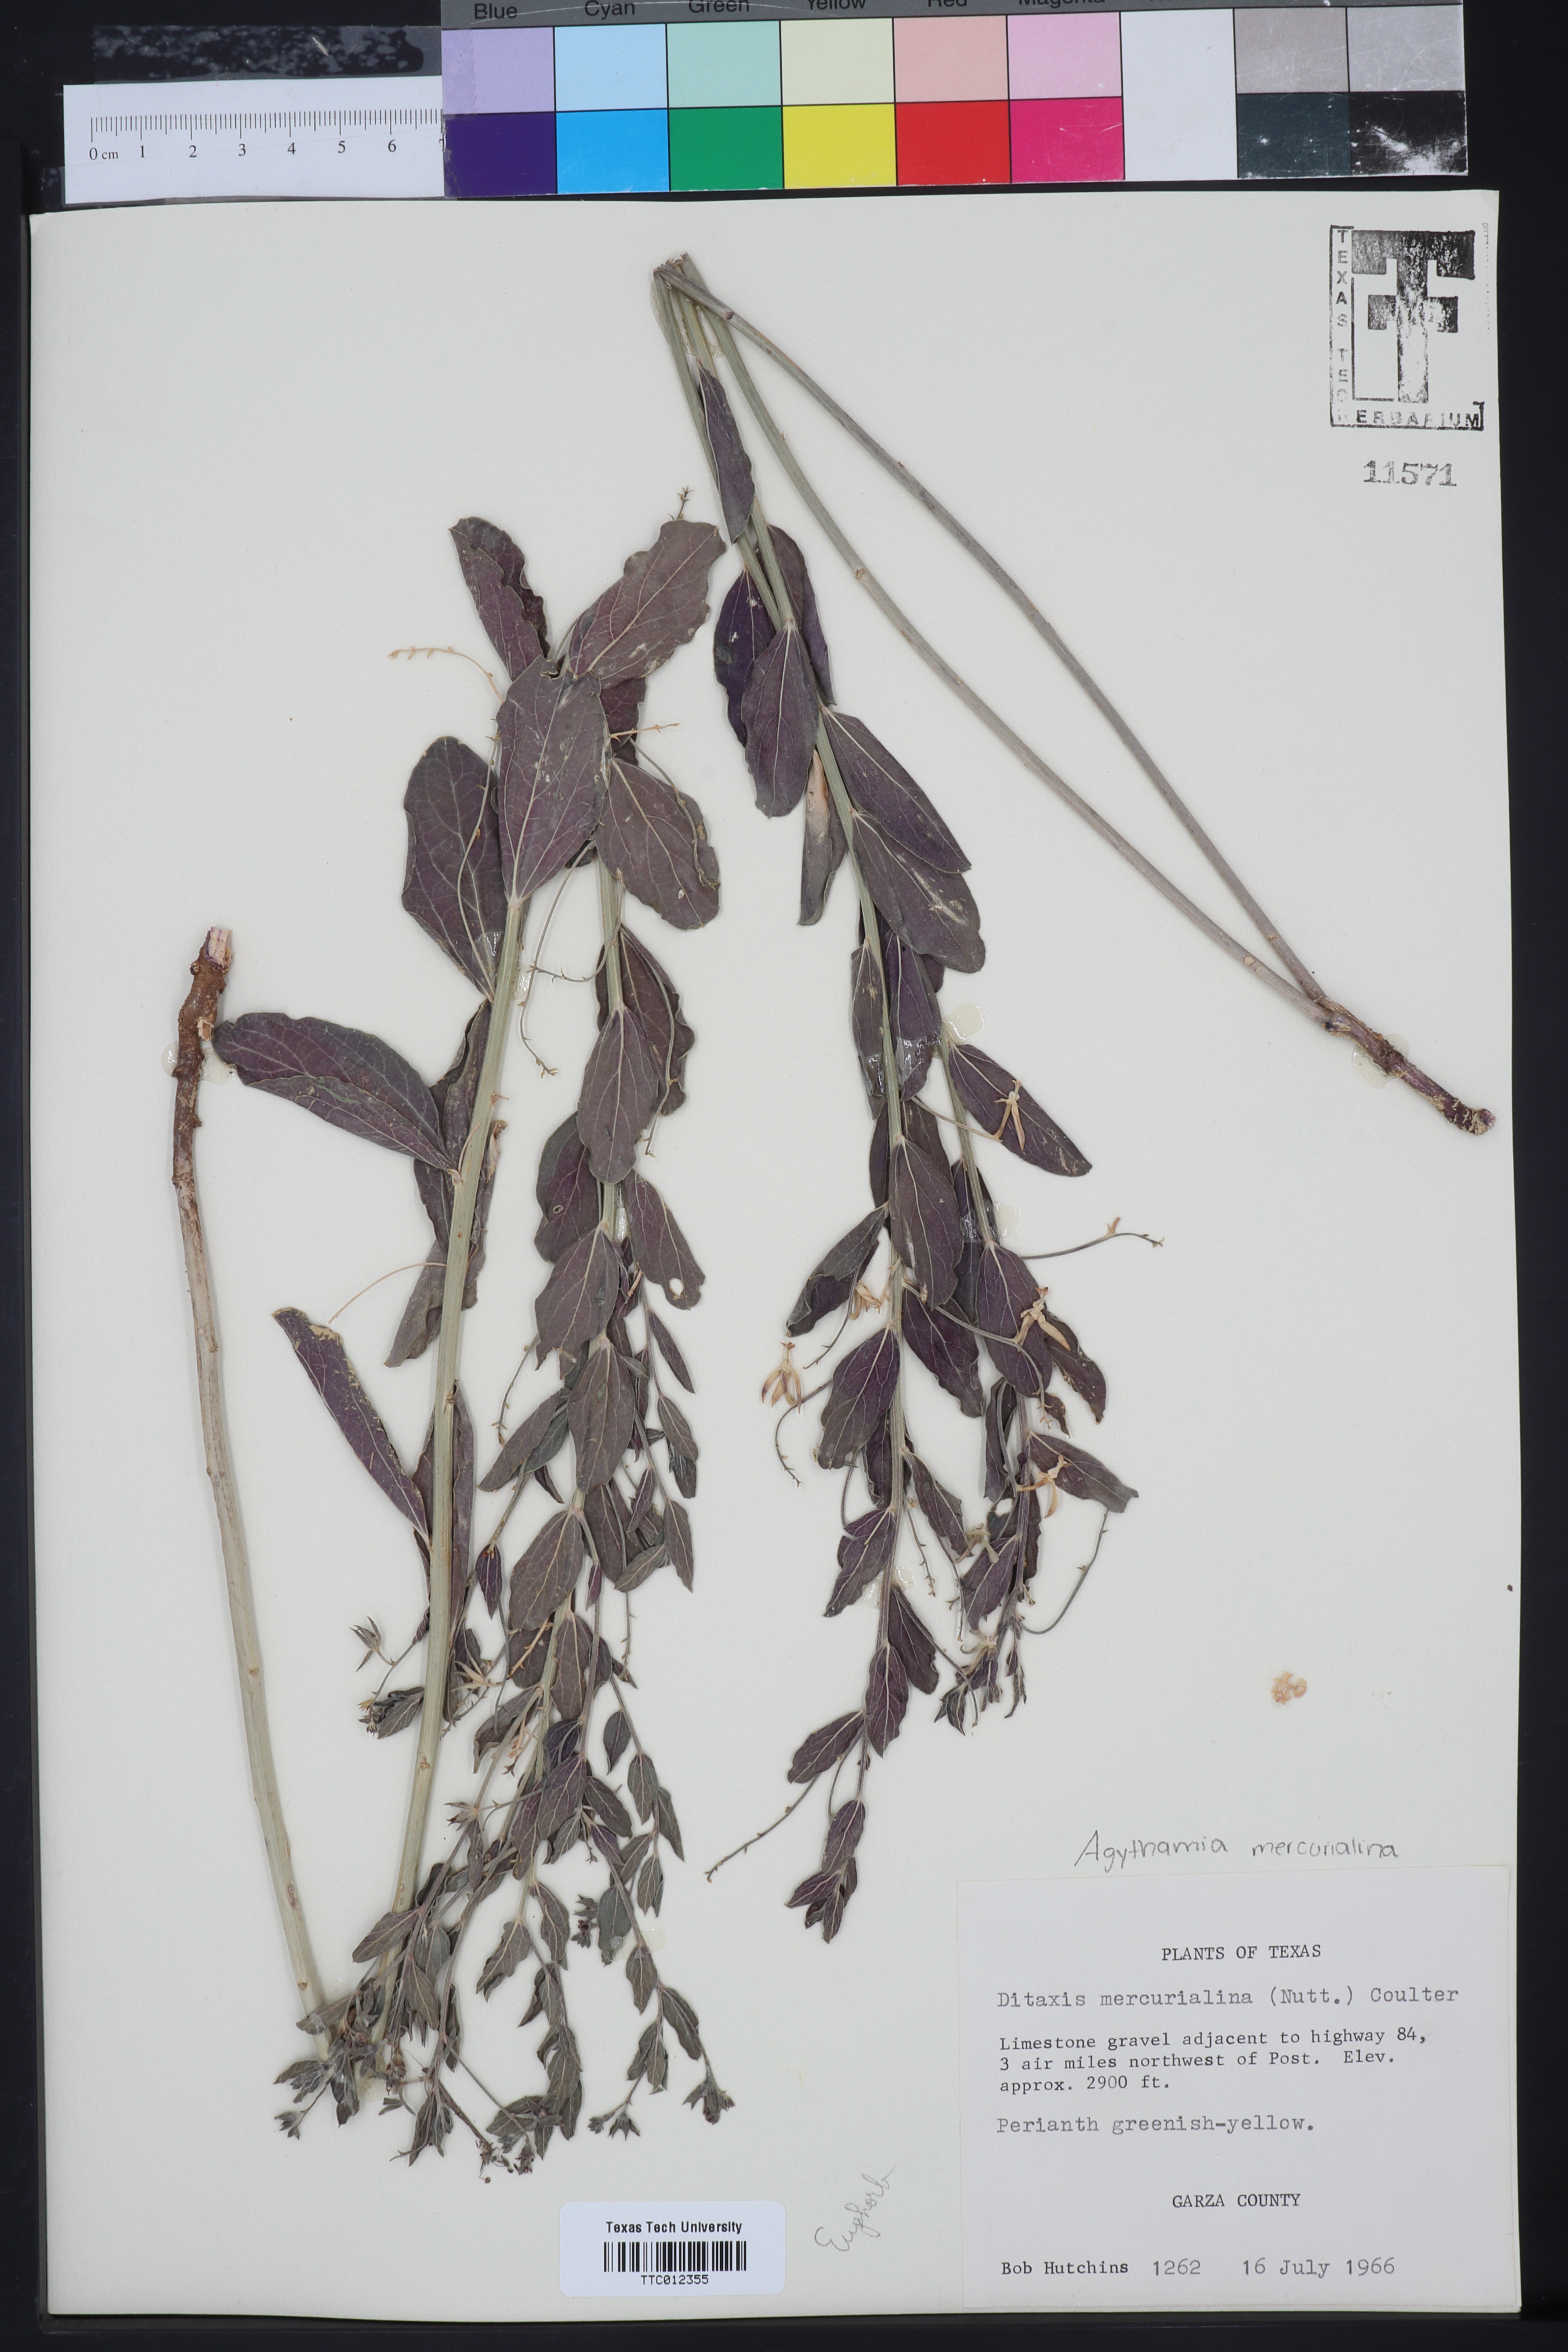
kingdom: Plantae
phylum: Tracheophyta
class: Magnoliopsida
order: Malpighiales
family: Euphorbiaceae
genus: Ditaxis
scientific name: Ditaxis mercurialina
